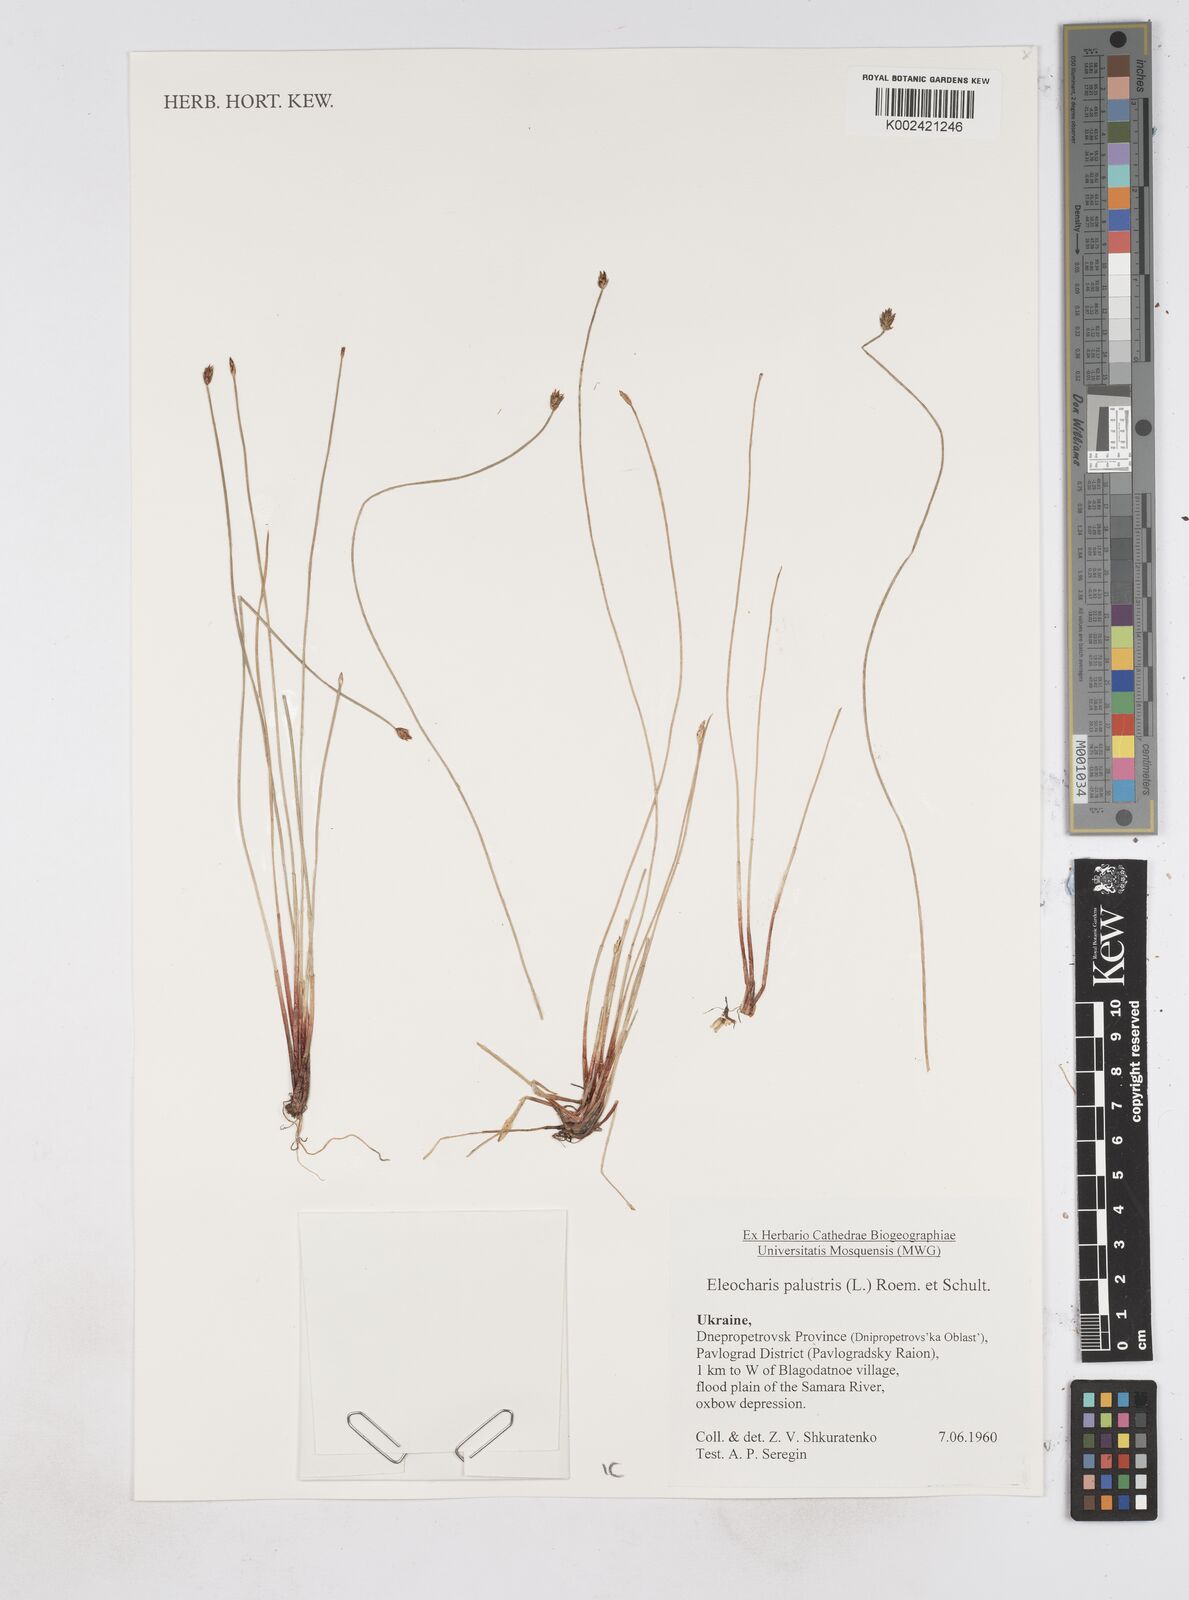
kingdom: Plantae
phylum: Tracheophyta
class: Liliopsida
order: Poales
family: Cyperaceae
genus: Eleocharis
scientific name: Eleocharis palustris
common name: Common spike-rush
